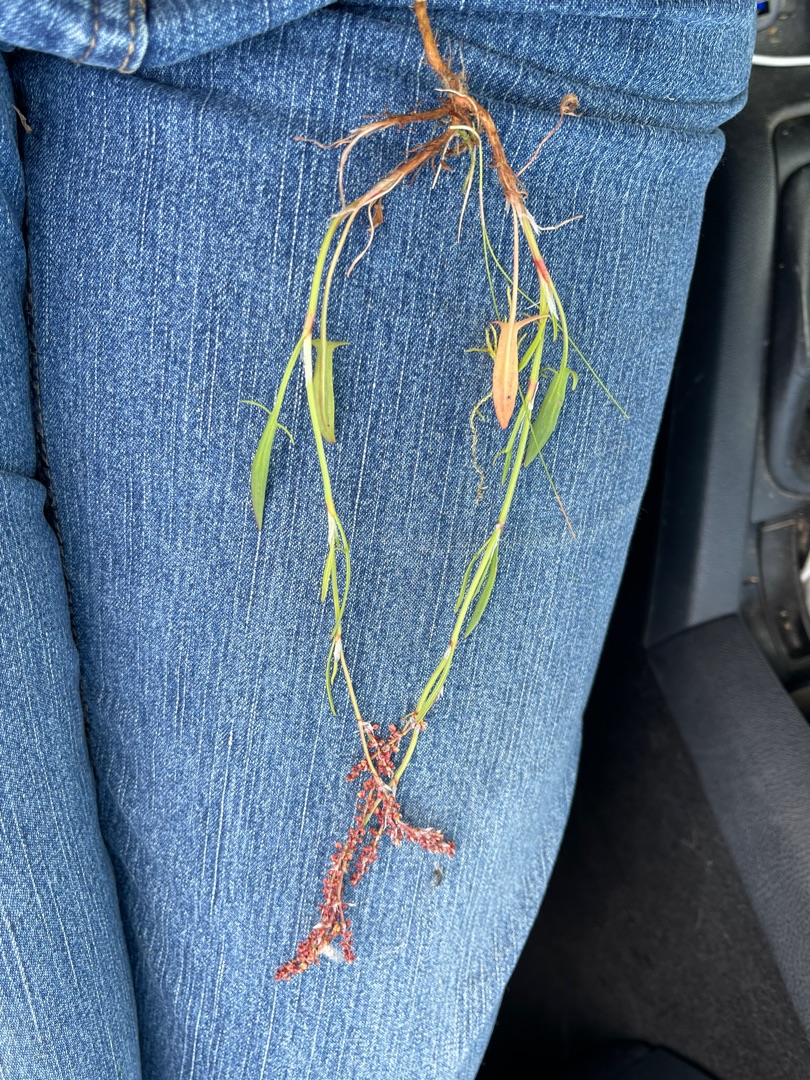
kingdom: Plantae
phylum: Tracheophyta
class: Magnoliopsida
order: Caryophyllales
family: Polygonaceae
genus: Rumex
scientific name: Rumex acetosella
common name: Rødknæ
